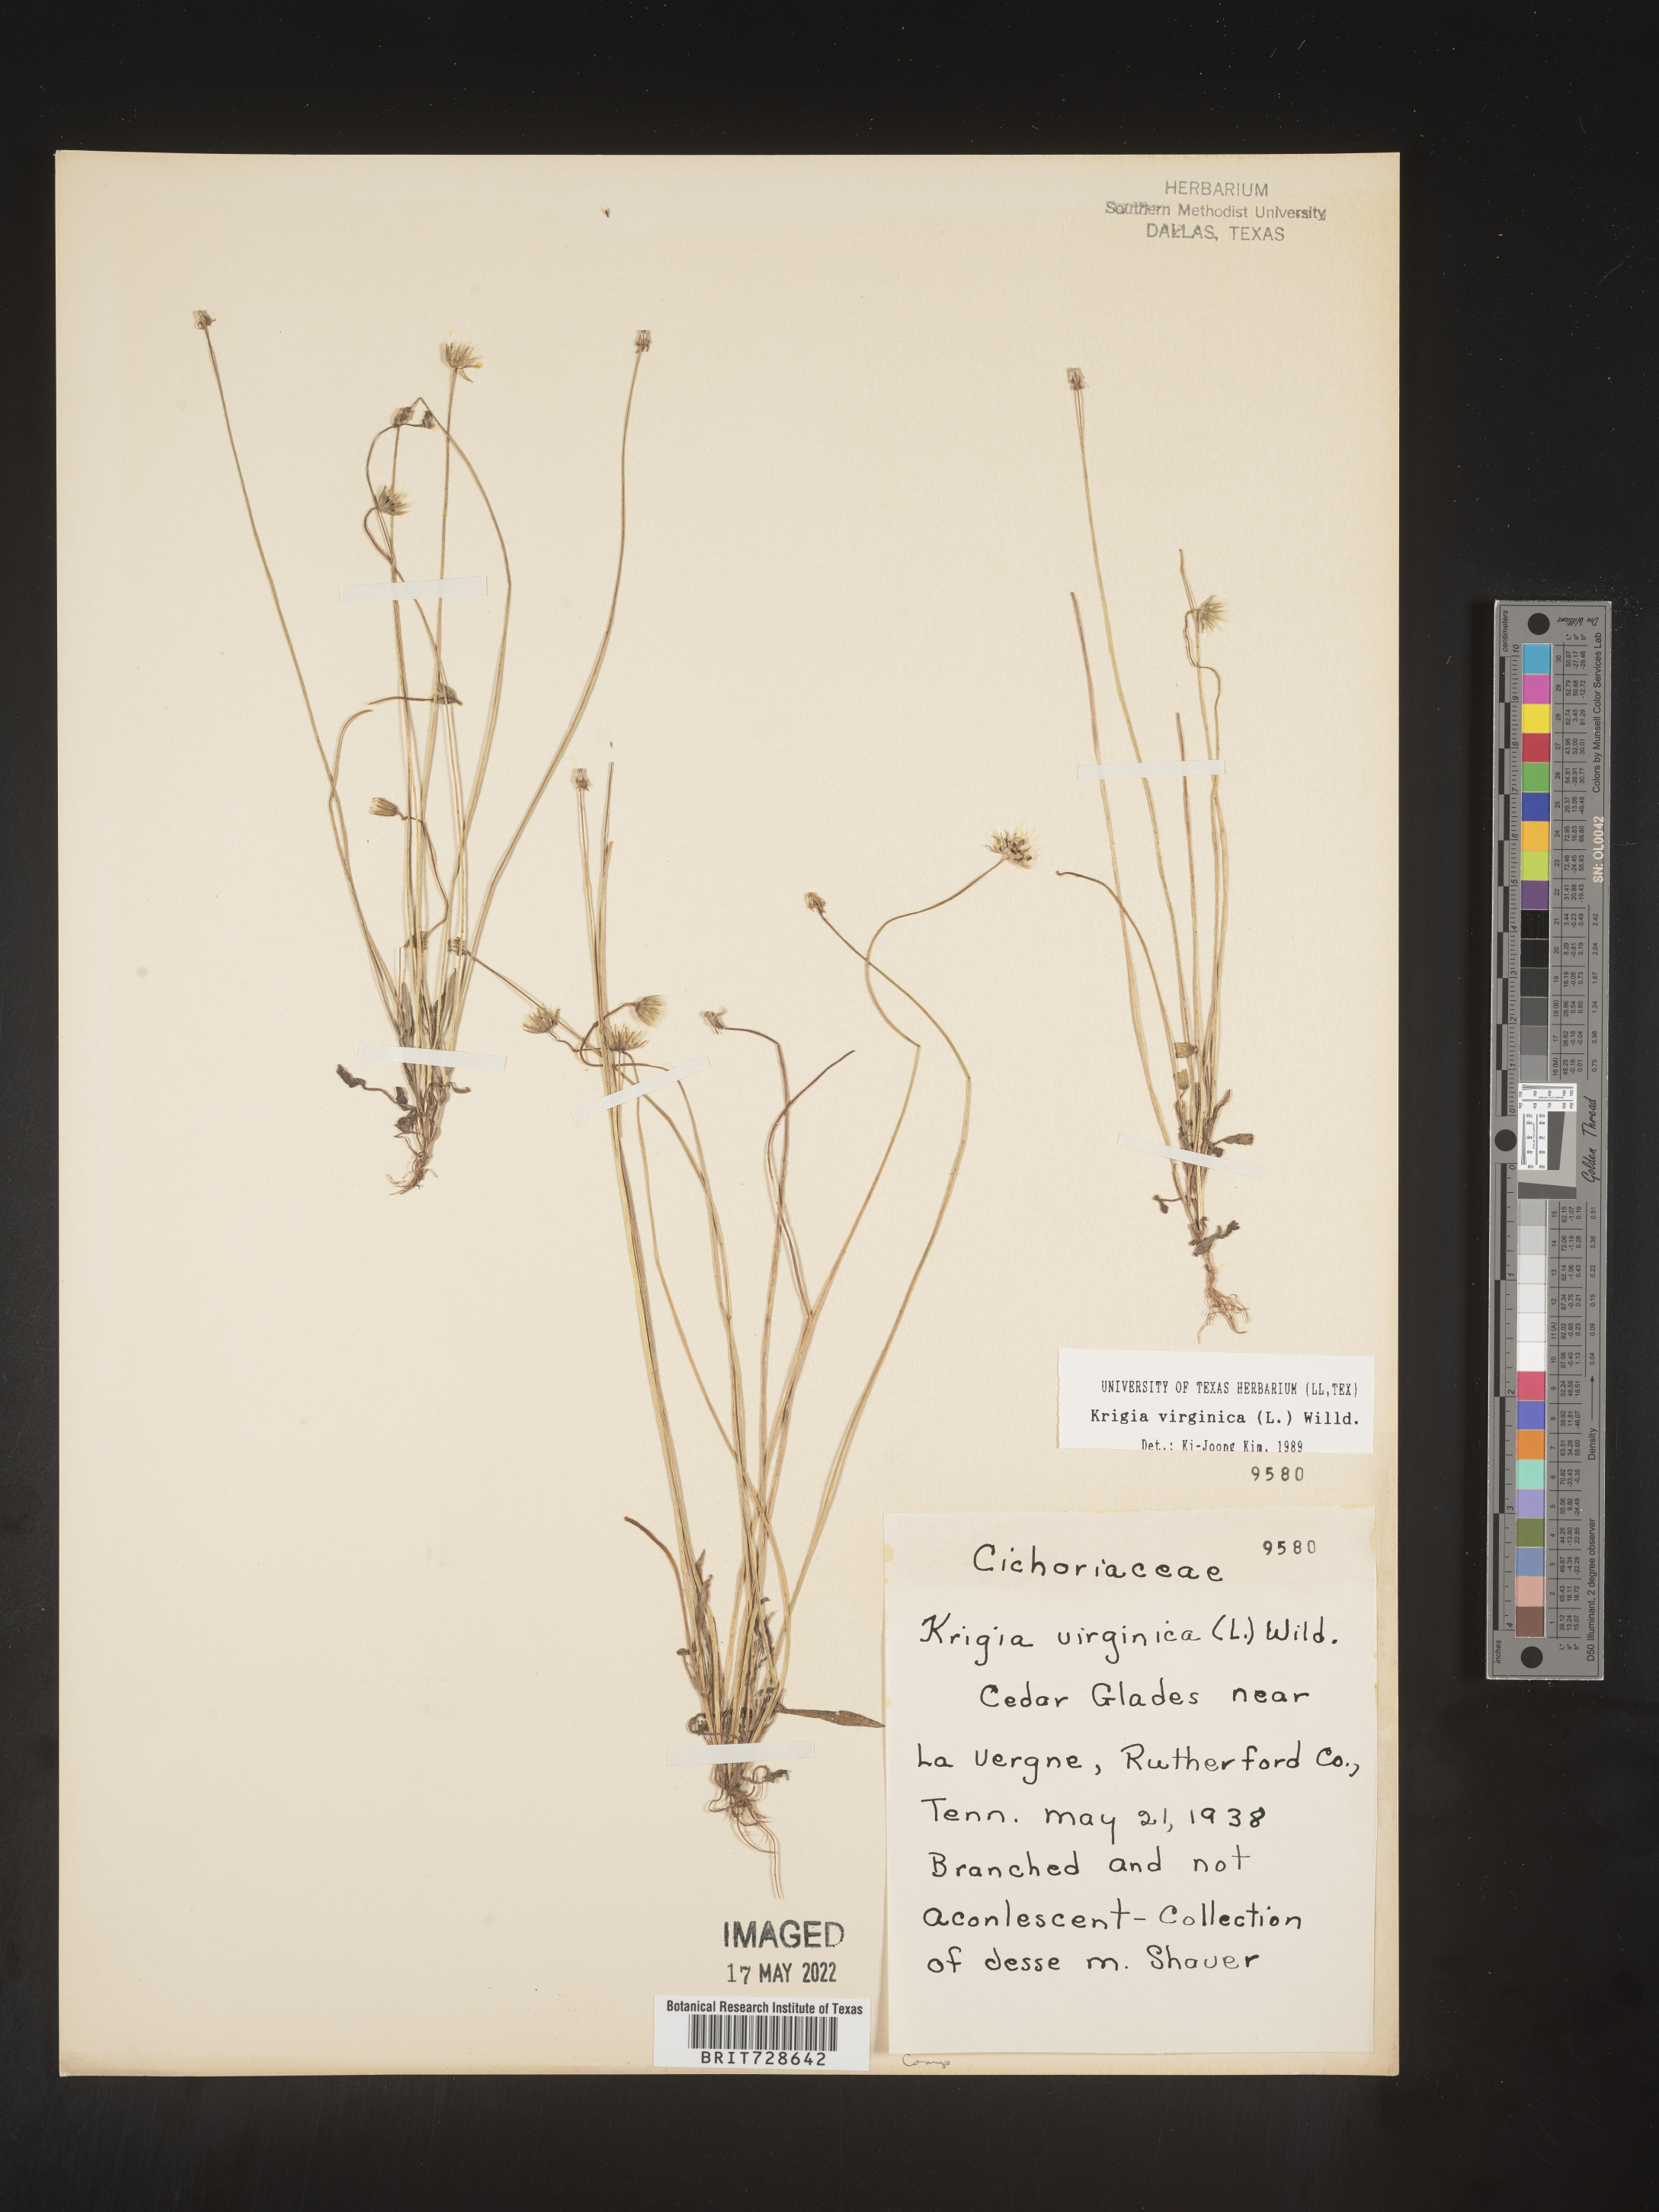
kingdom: Plantae
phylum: Tracheophyta
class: Magnoliopsida
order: Asterales
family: Asteraceae
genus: Krigia
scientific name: Krigia virginica
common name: Virginia dwarf-dandelion
